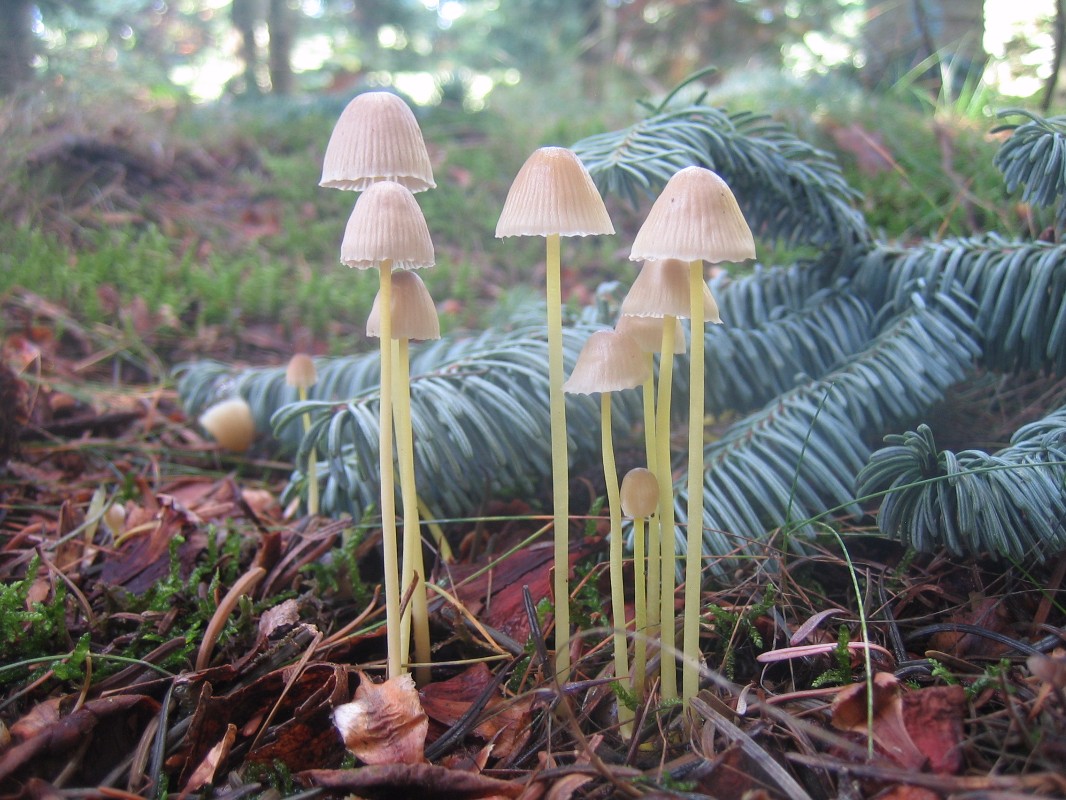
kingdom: Fungi
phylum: Basidiomycota
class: Agaricomycetes
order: Agaricales
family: Mycenaceae
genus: Mycena
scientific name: Mycena epipterygia
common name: gulstokket huesvamp
